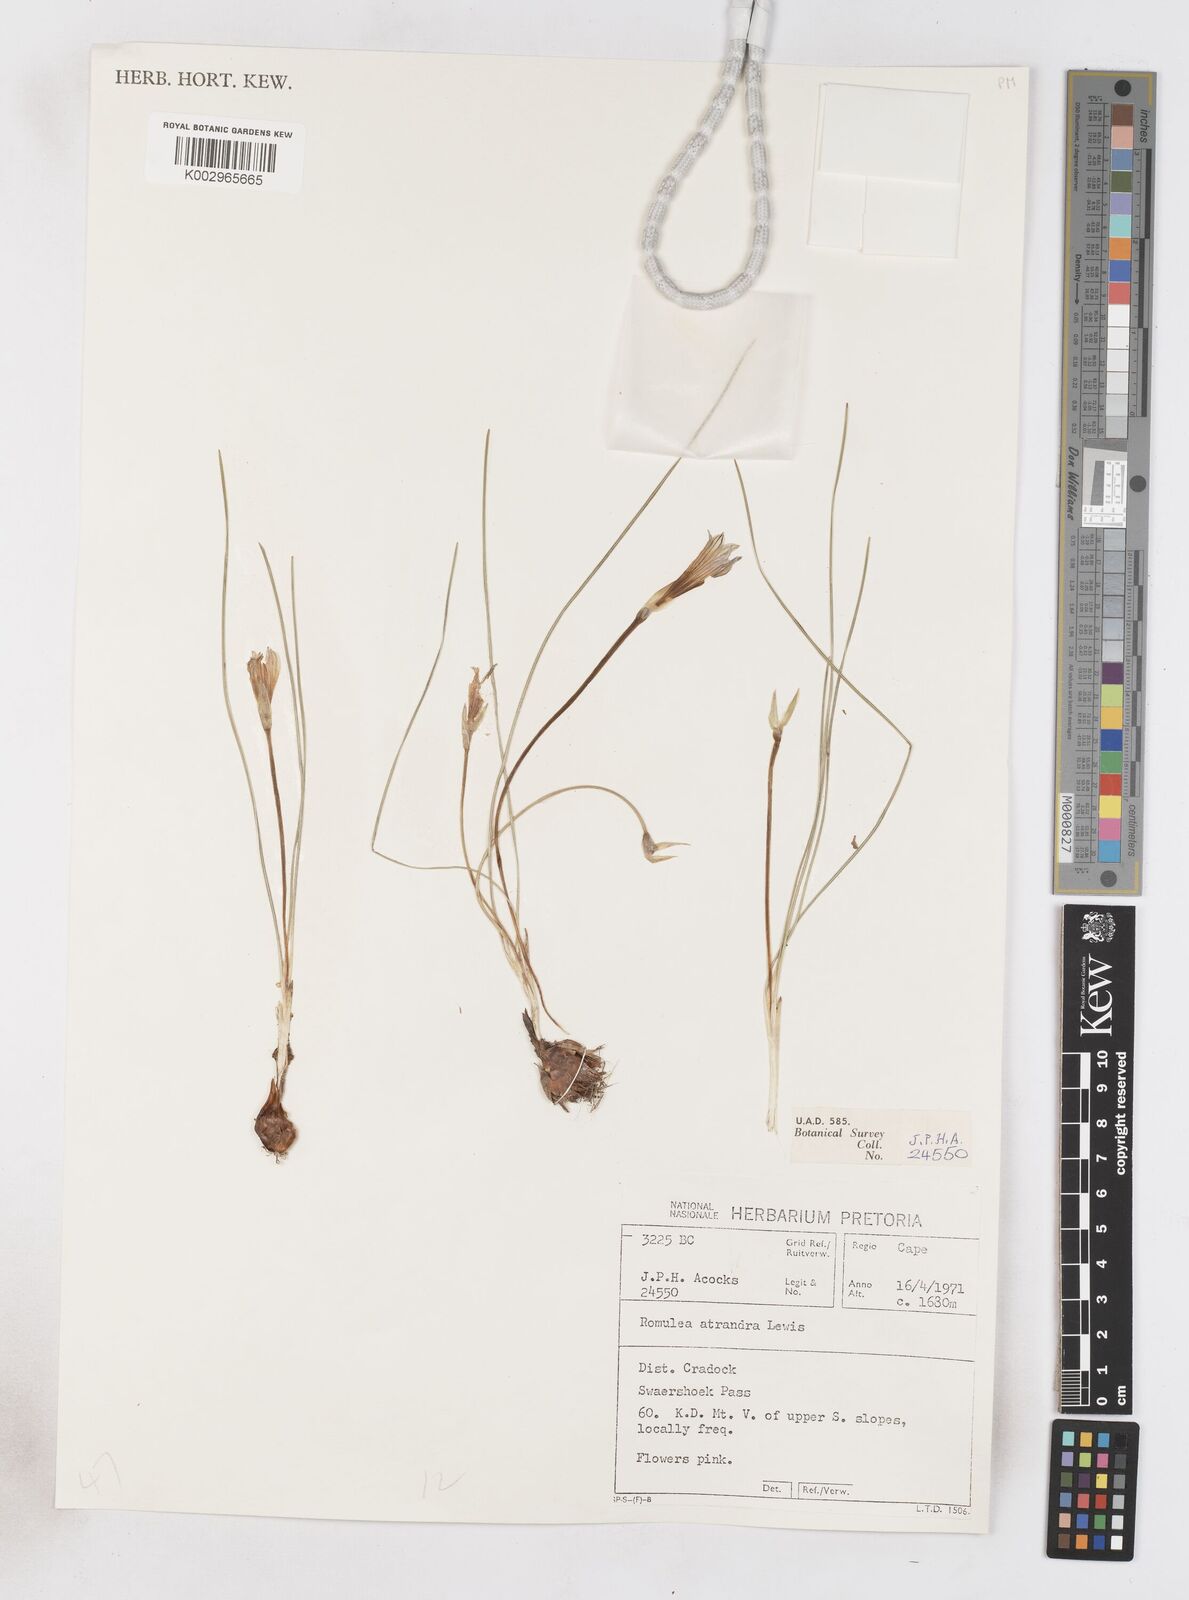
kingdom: Plantae
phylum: Tracheophyta
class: Liliopsida
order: Asparagales
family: Iridaceae
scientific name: Iridaceae
